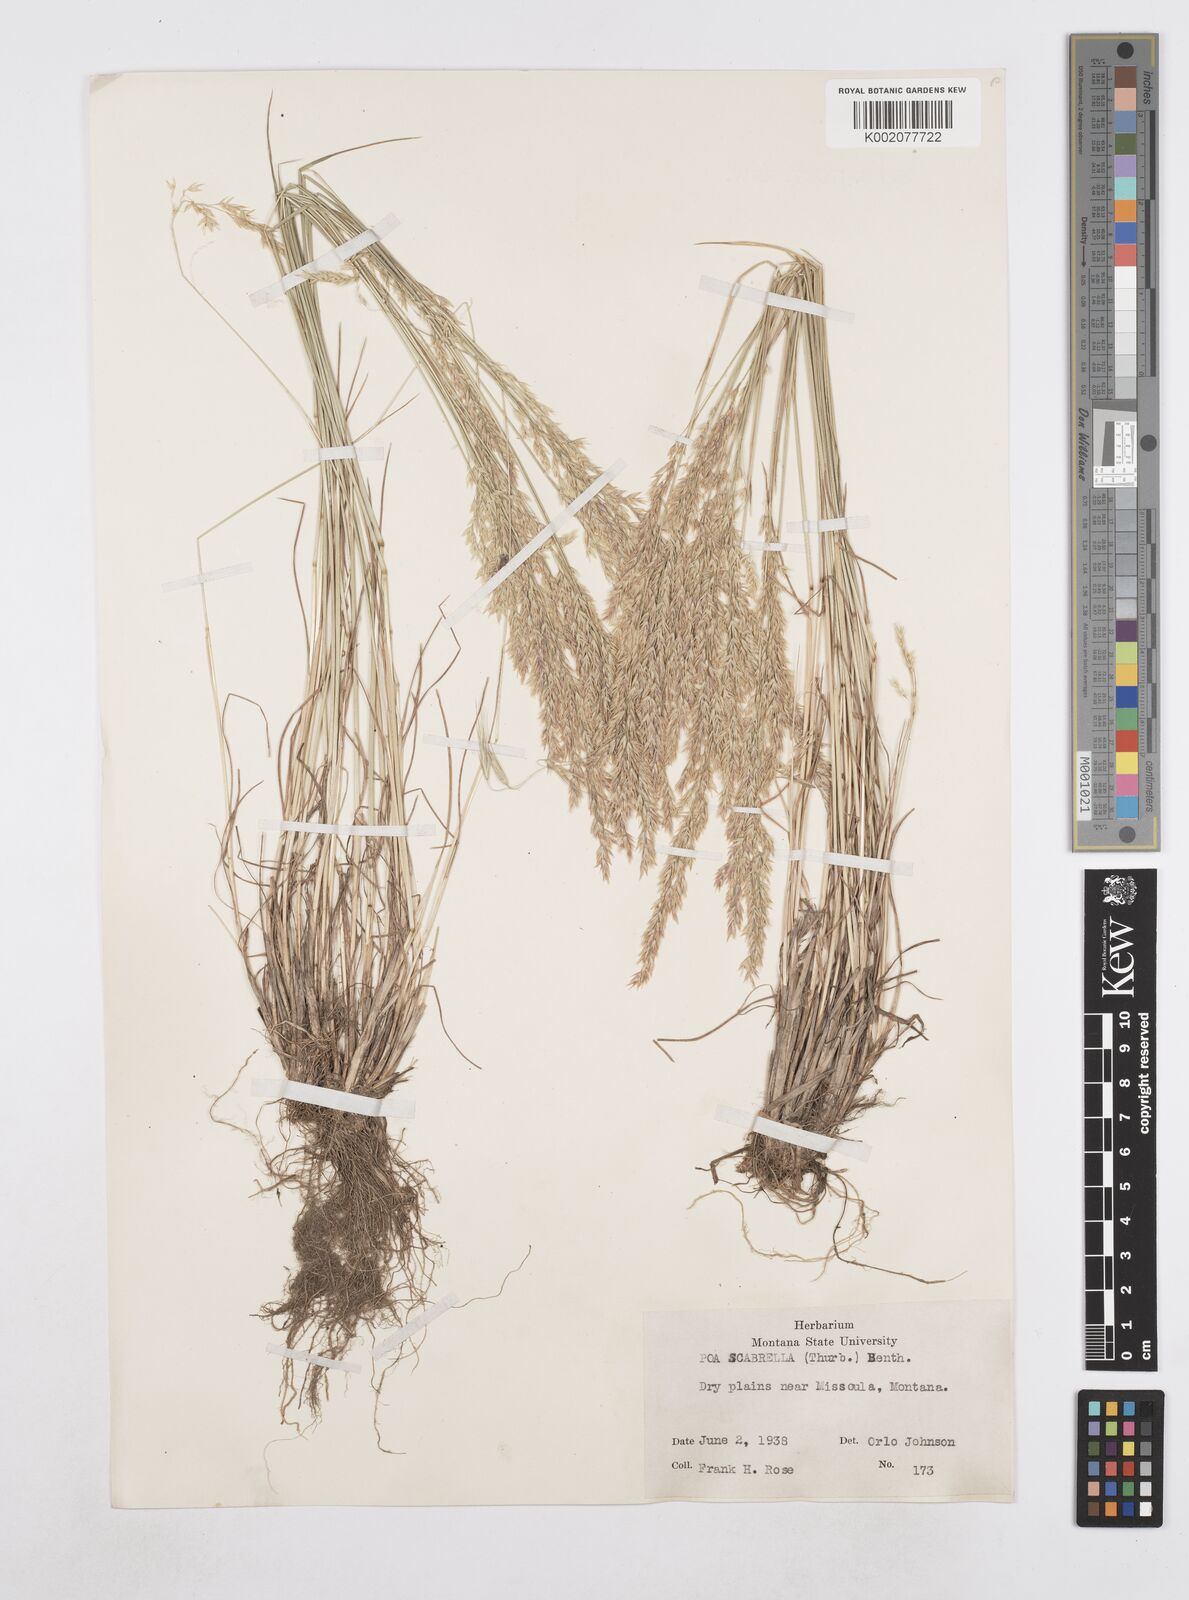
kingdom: Plantae
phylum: Tracheophyta
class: Liliopsida
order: Poales
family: Poaceae
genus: Poa
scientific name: Poa secunda
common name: Sandberg bluegrass
